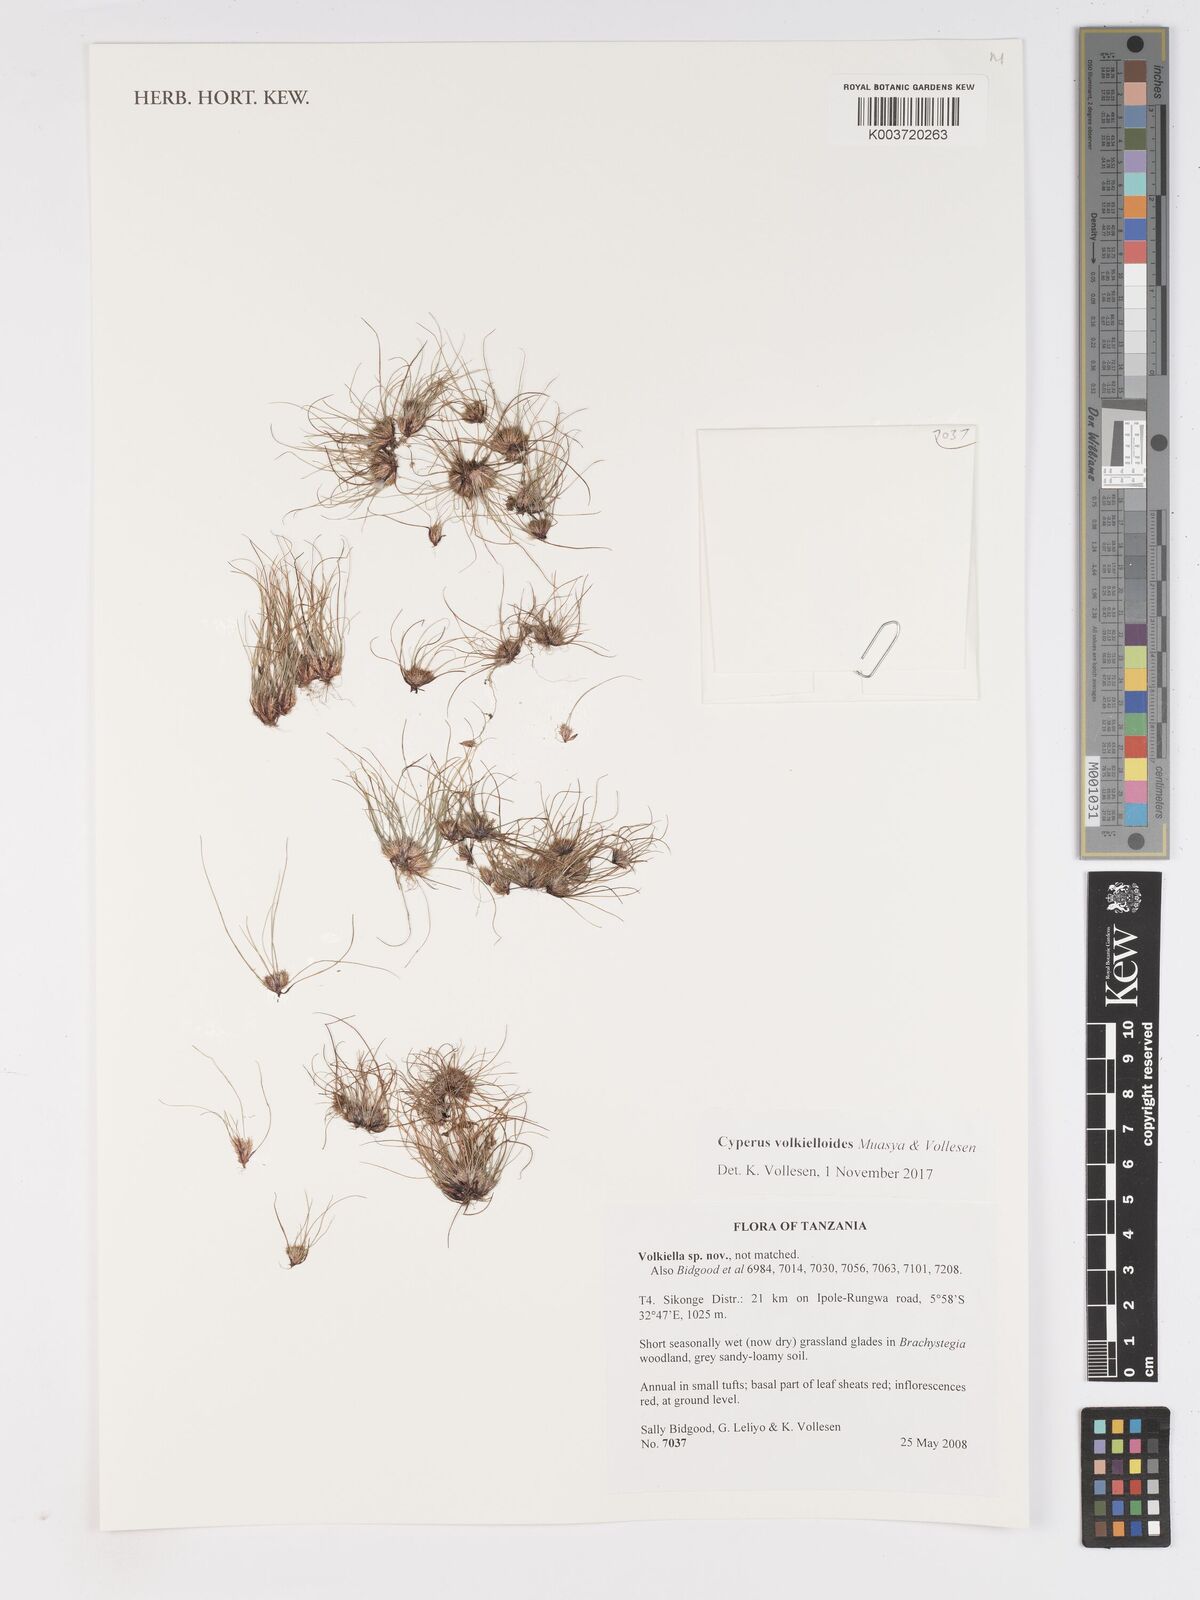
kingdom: Plantae
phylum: Tracheophyta
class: Liliopsida
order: Poales
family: Cyperaceae
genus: Cyperus
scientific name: Cyperus volkielloides
